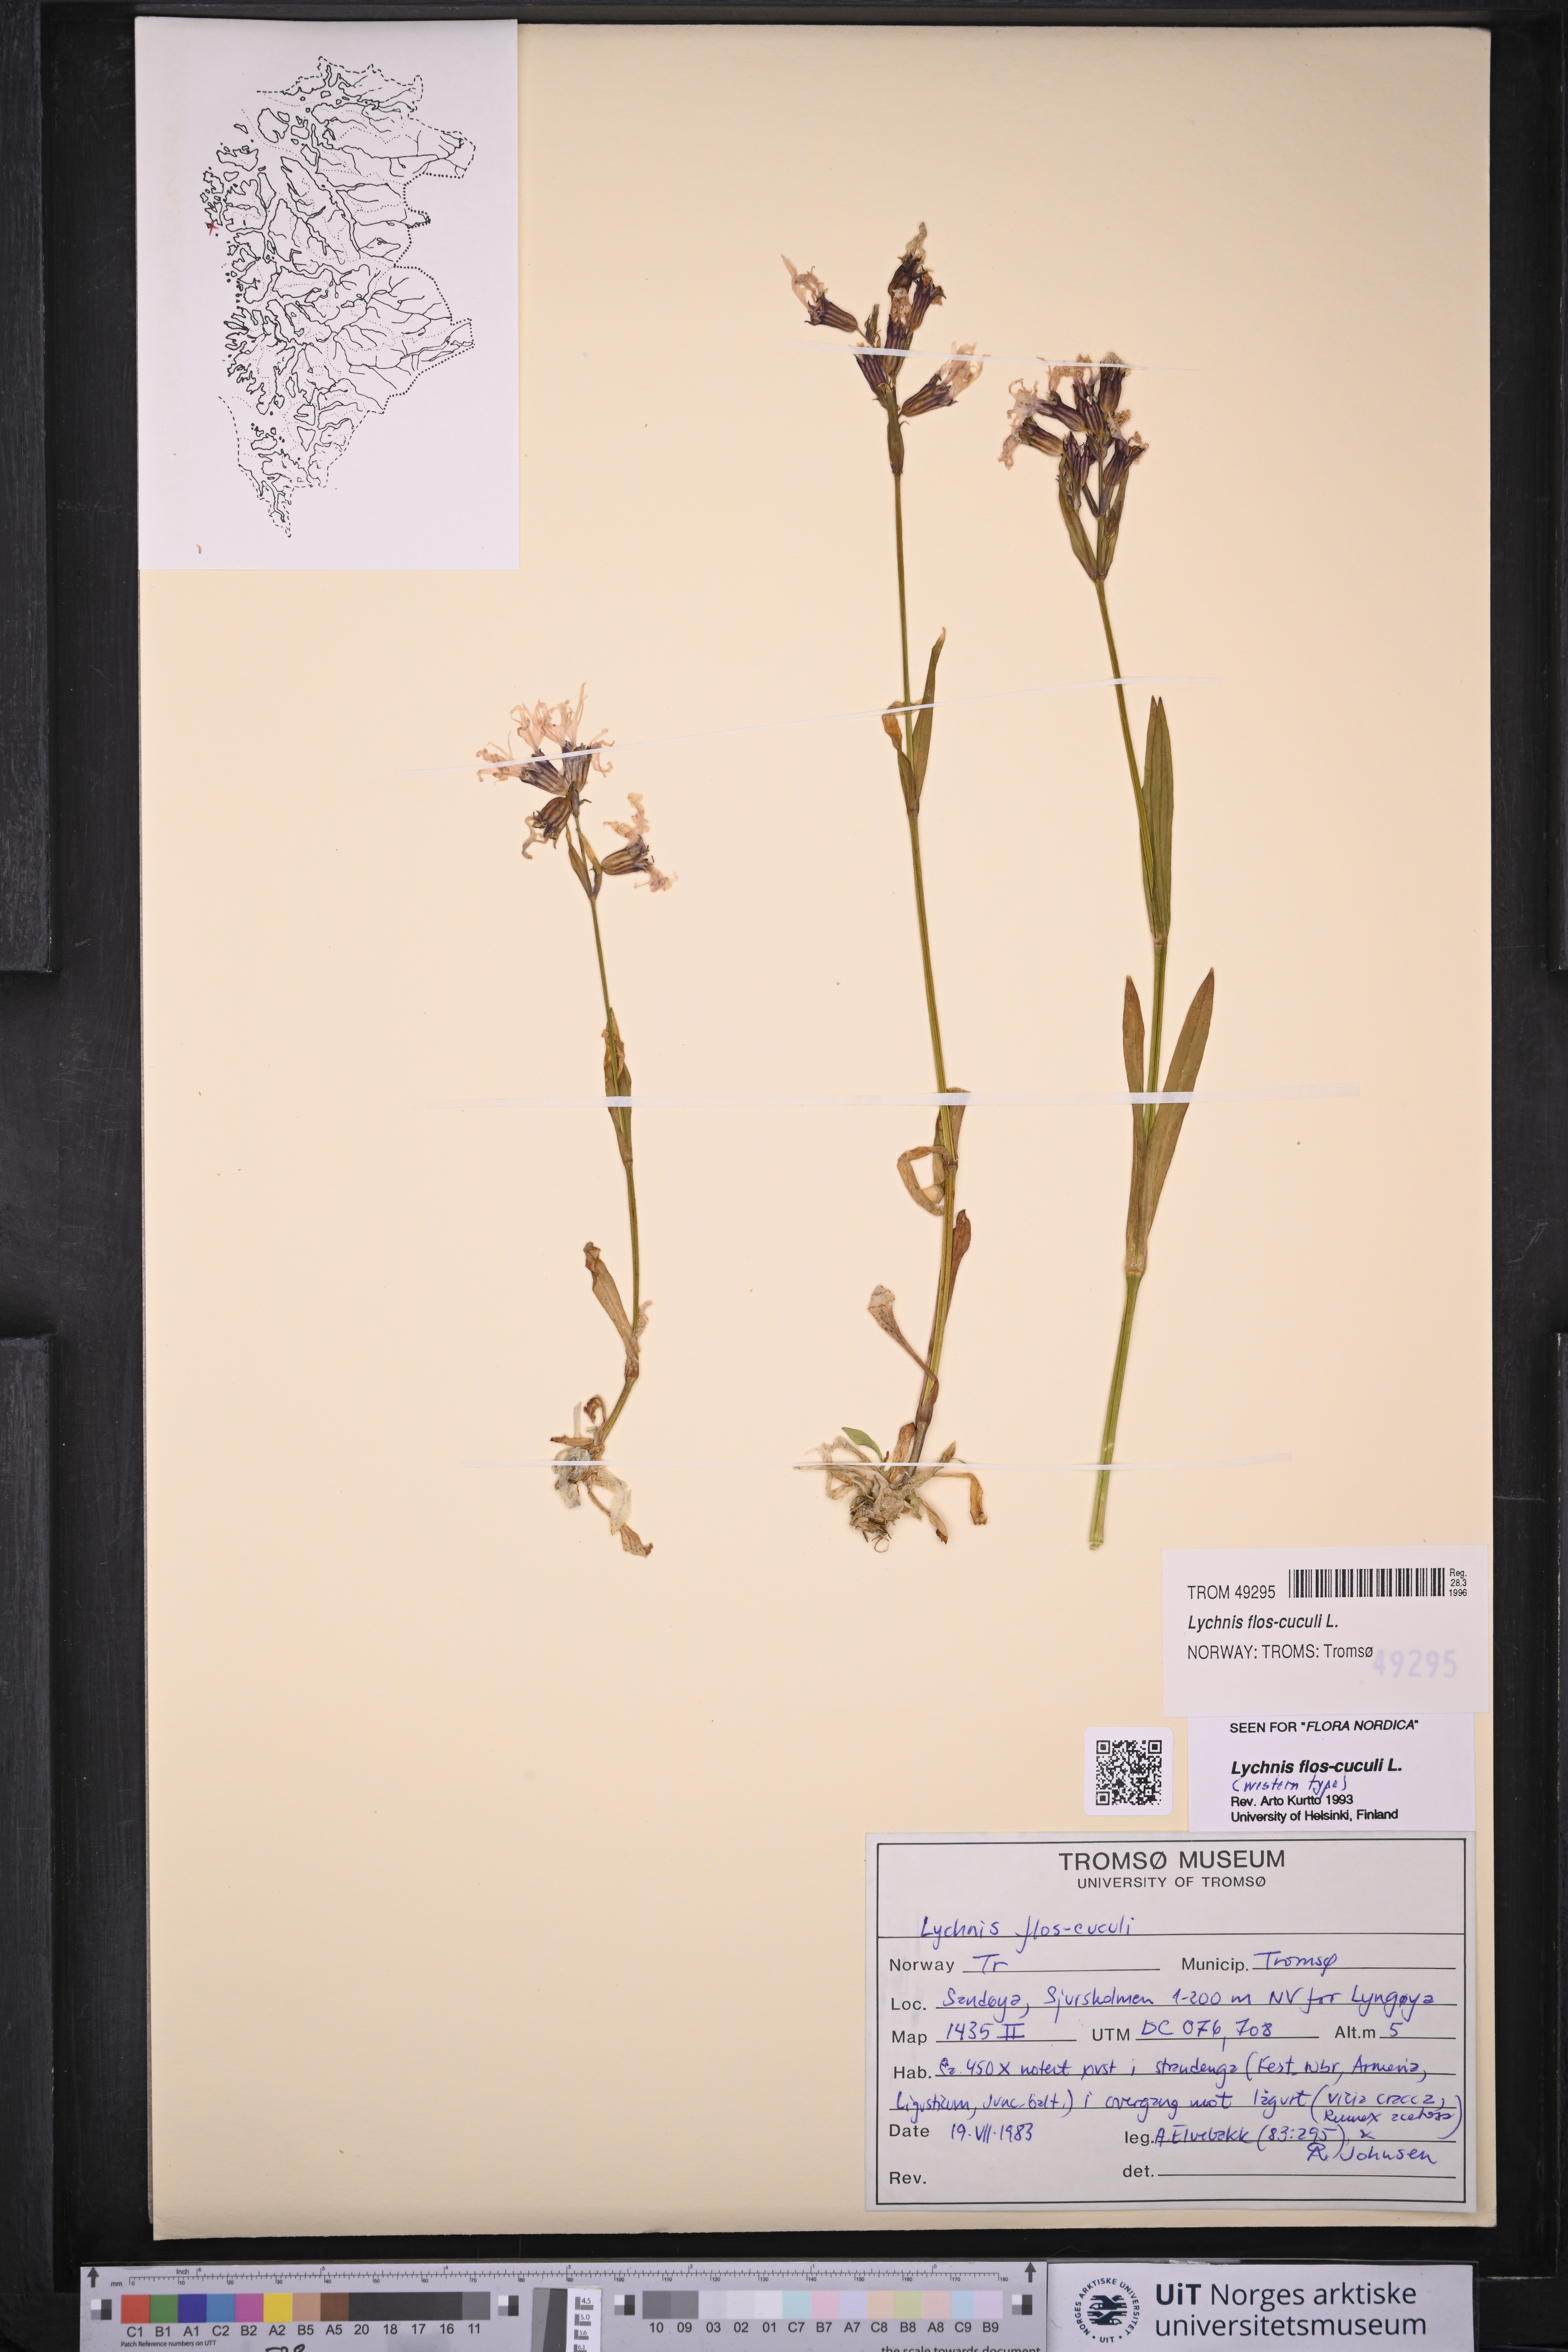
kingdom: Plantae
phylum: Tracheophyta
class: Magnoliopsida
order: Caryophyllales
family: Caryophyllaceae
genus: Silene
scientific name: Silene flos-cuculi
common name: Ragged-robin
